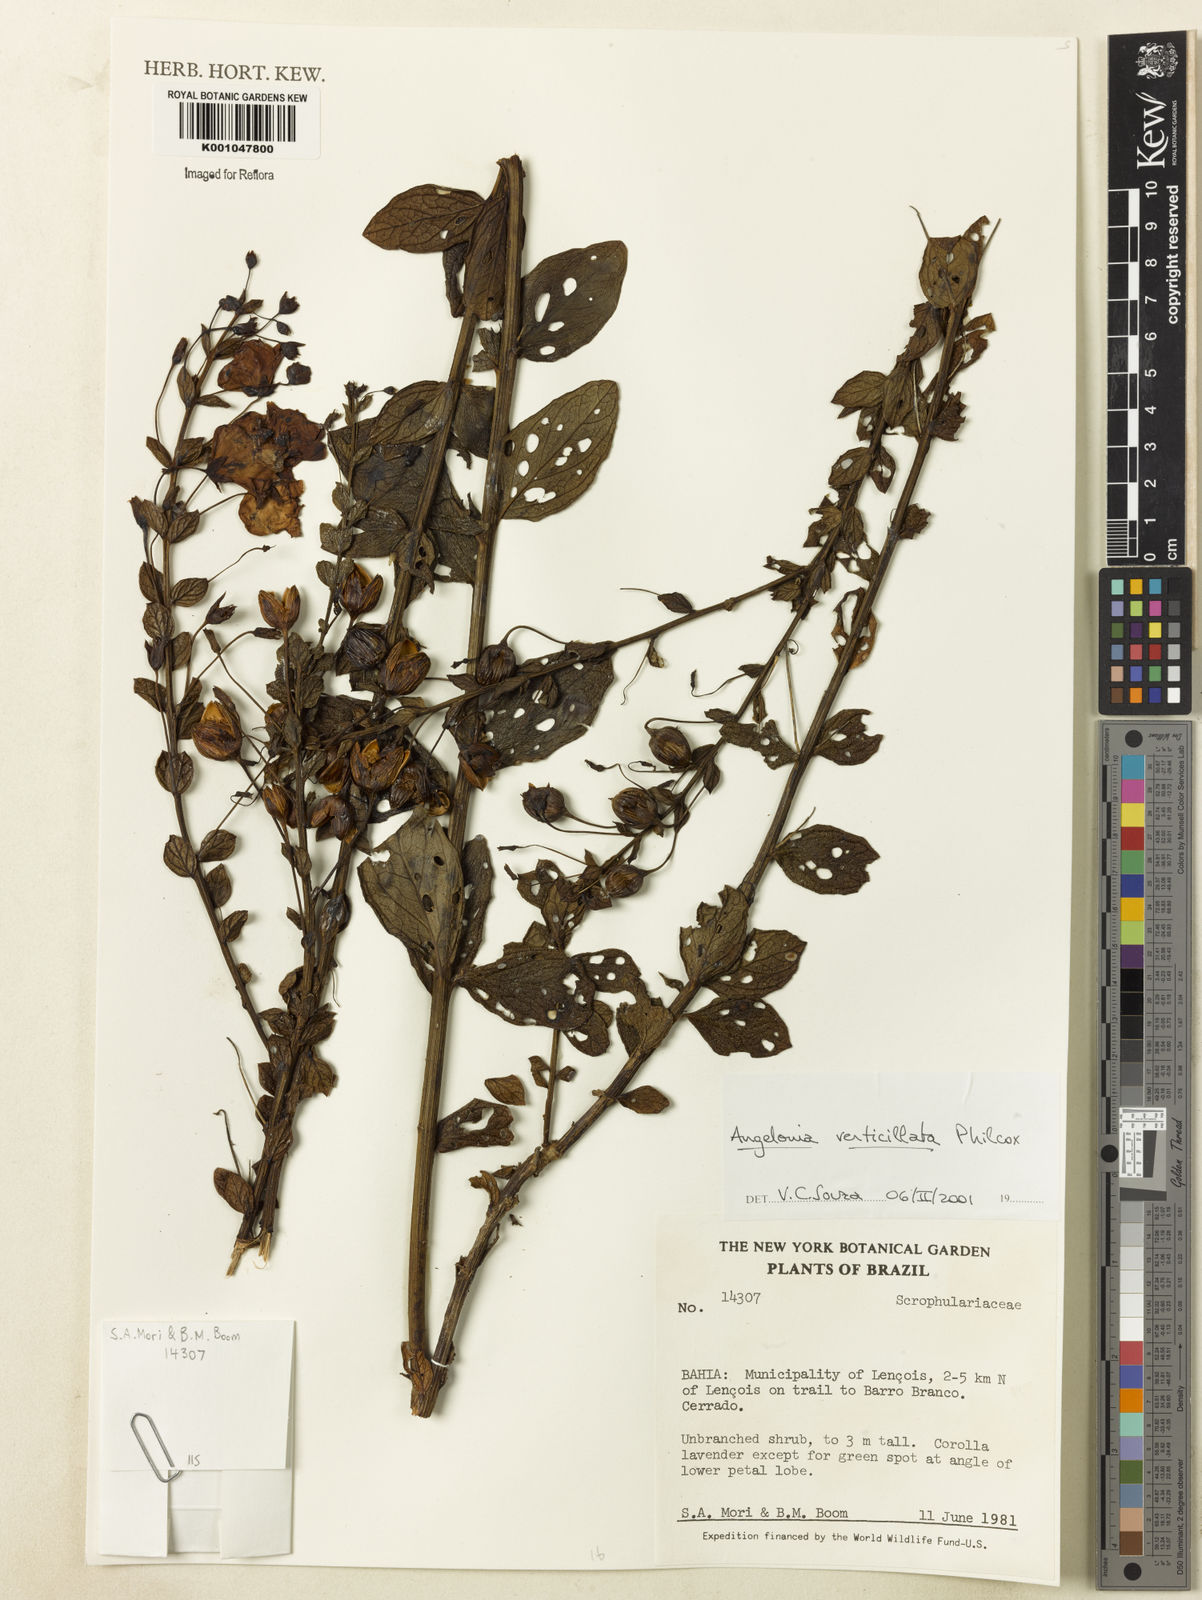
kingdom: Plantae
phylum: Tracheophyta
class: Magnoliopsida
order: Lamiales
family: Plantaginaceae
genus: Angelonia
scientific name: Angelonia verticillata
